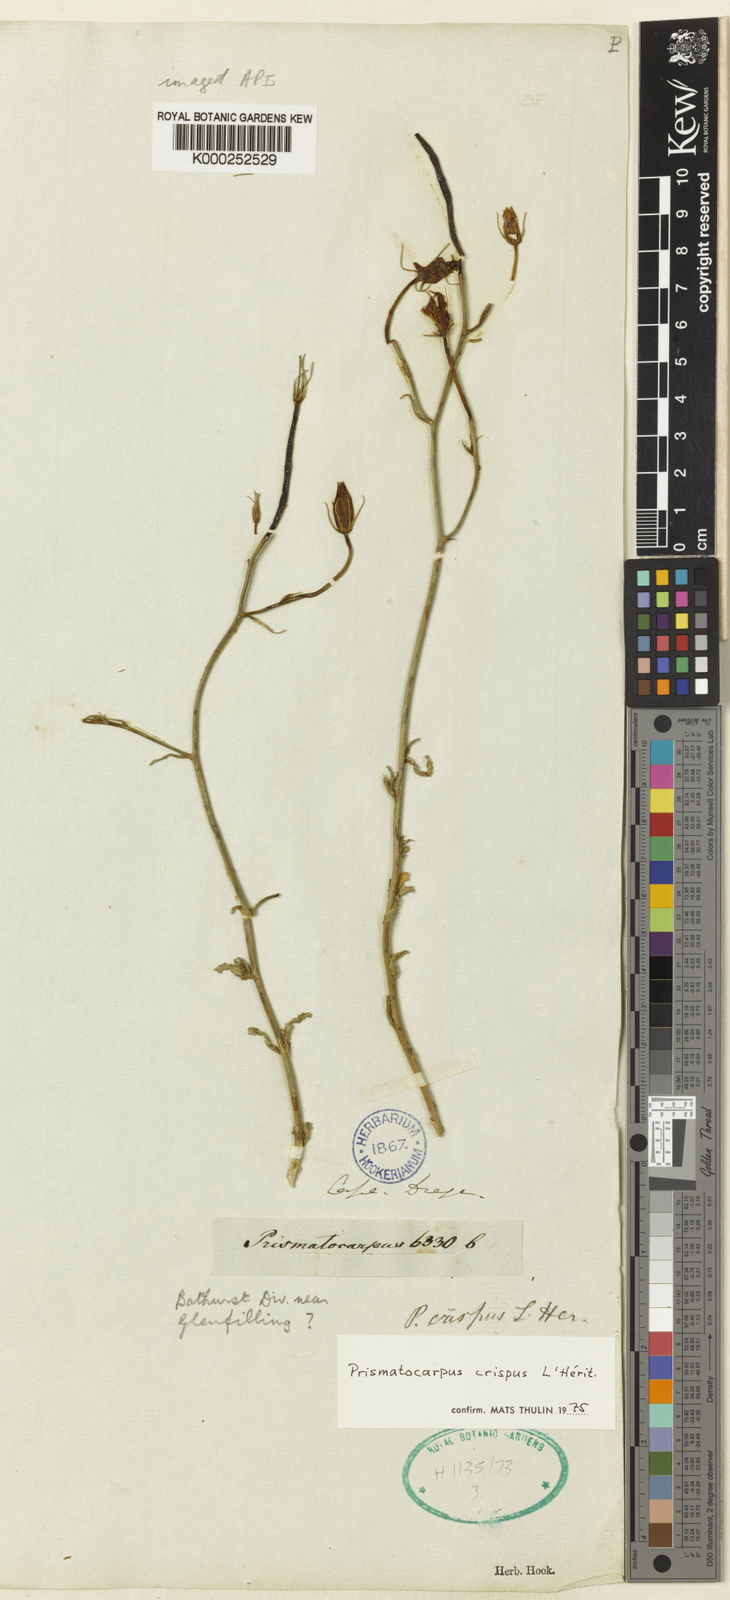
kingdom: Plantae
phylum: Tracheophyta
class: Magnoliopsida
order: Asterales
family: Campanulaceae
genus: Prismatocarpus
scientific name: Prismatocarpus
